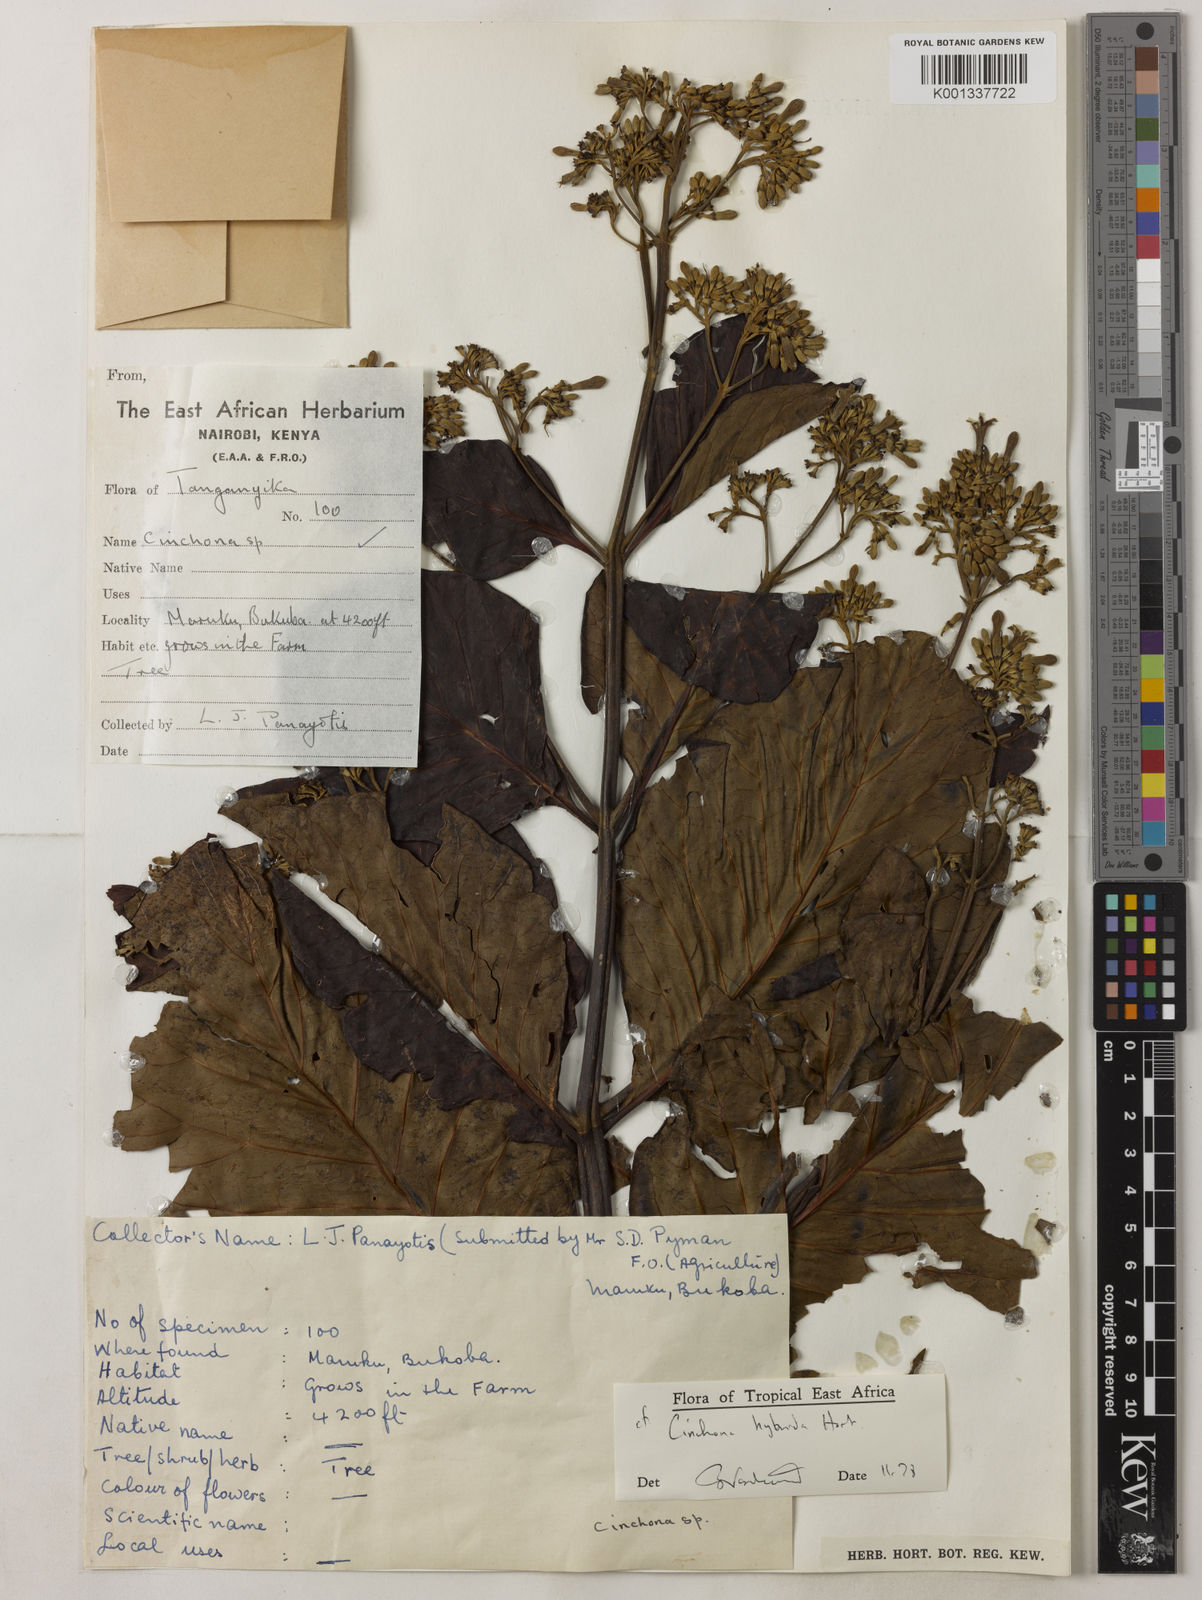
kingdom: Plantae
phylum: Tracheophyta
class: Magnoliopsida
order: Gentianales
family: Rubiaceae
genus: Cinchona
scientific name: Cinchona
